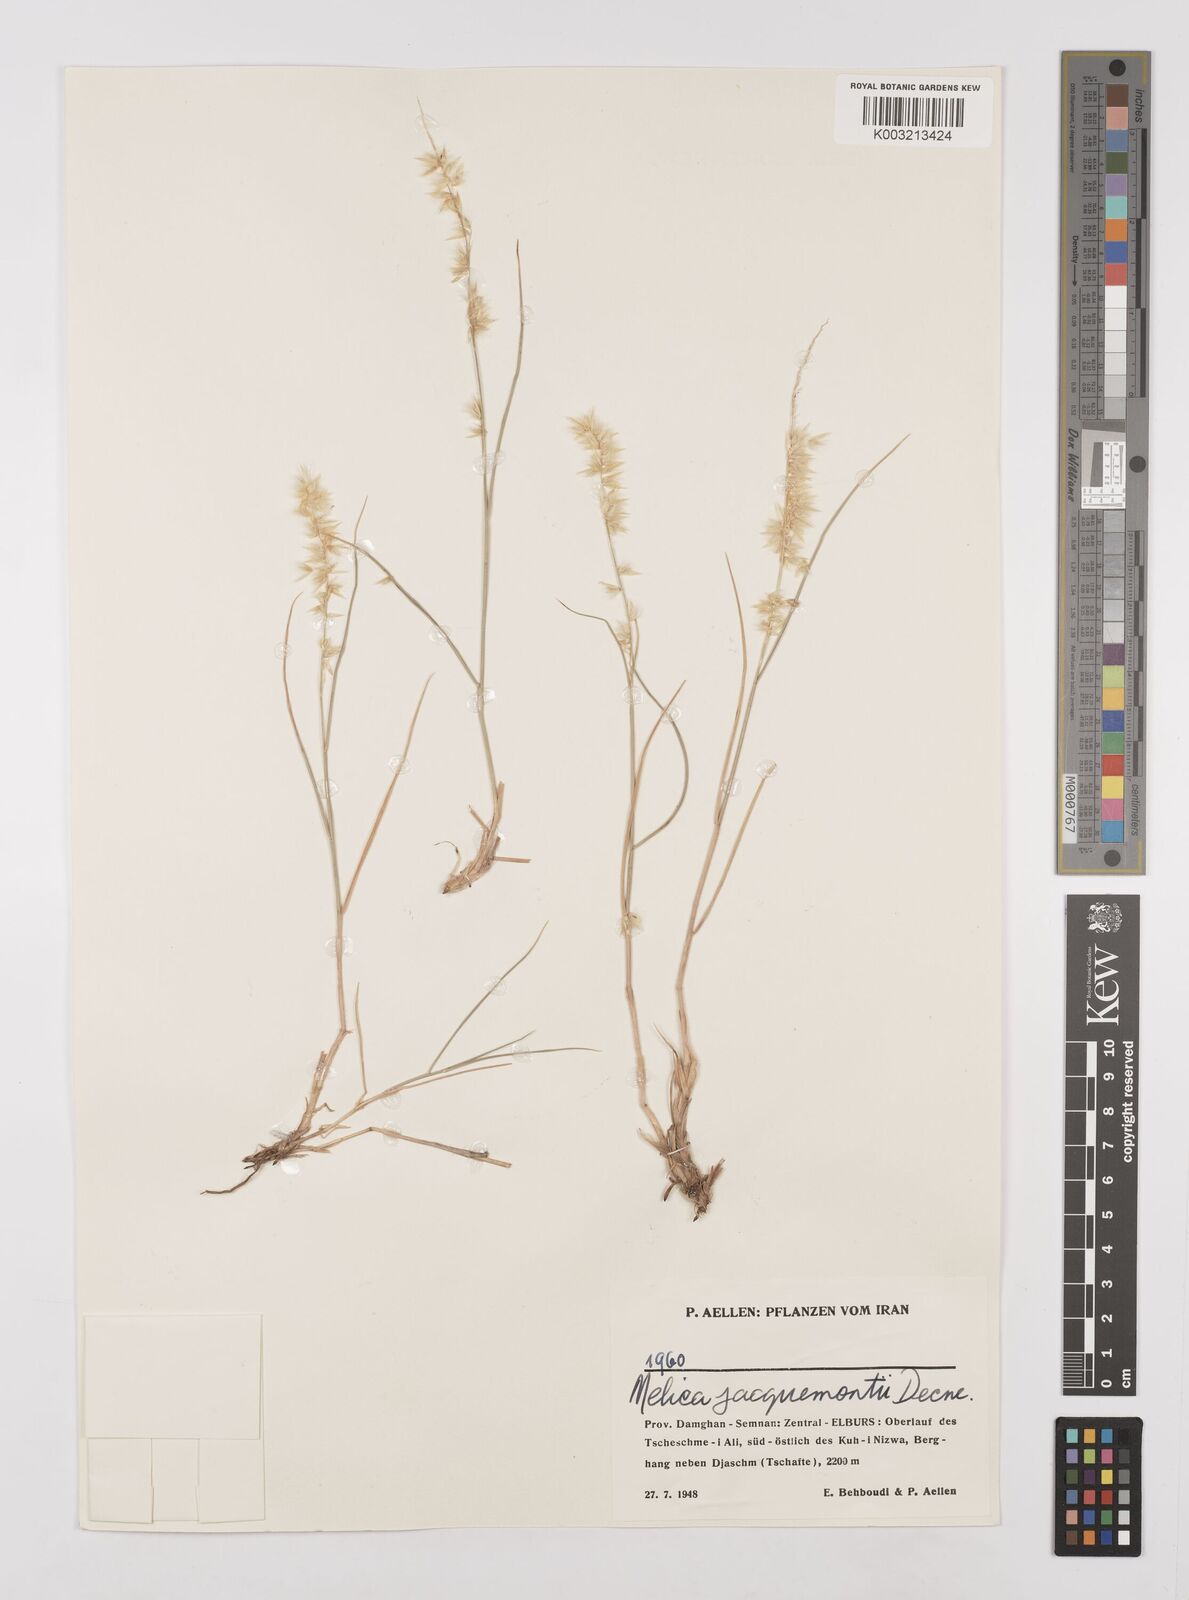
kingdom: Plantae
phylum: Tracheophyta
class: Liliopsida
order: Poales
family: Poaceae
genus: Melica
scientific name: Melica persica
